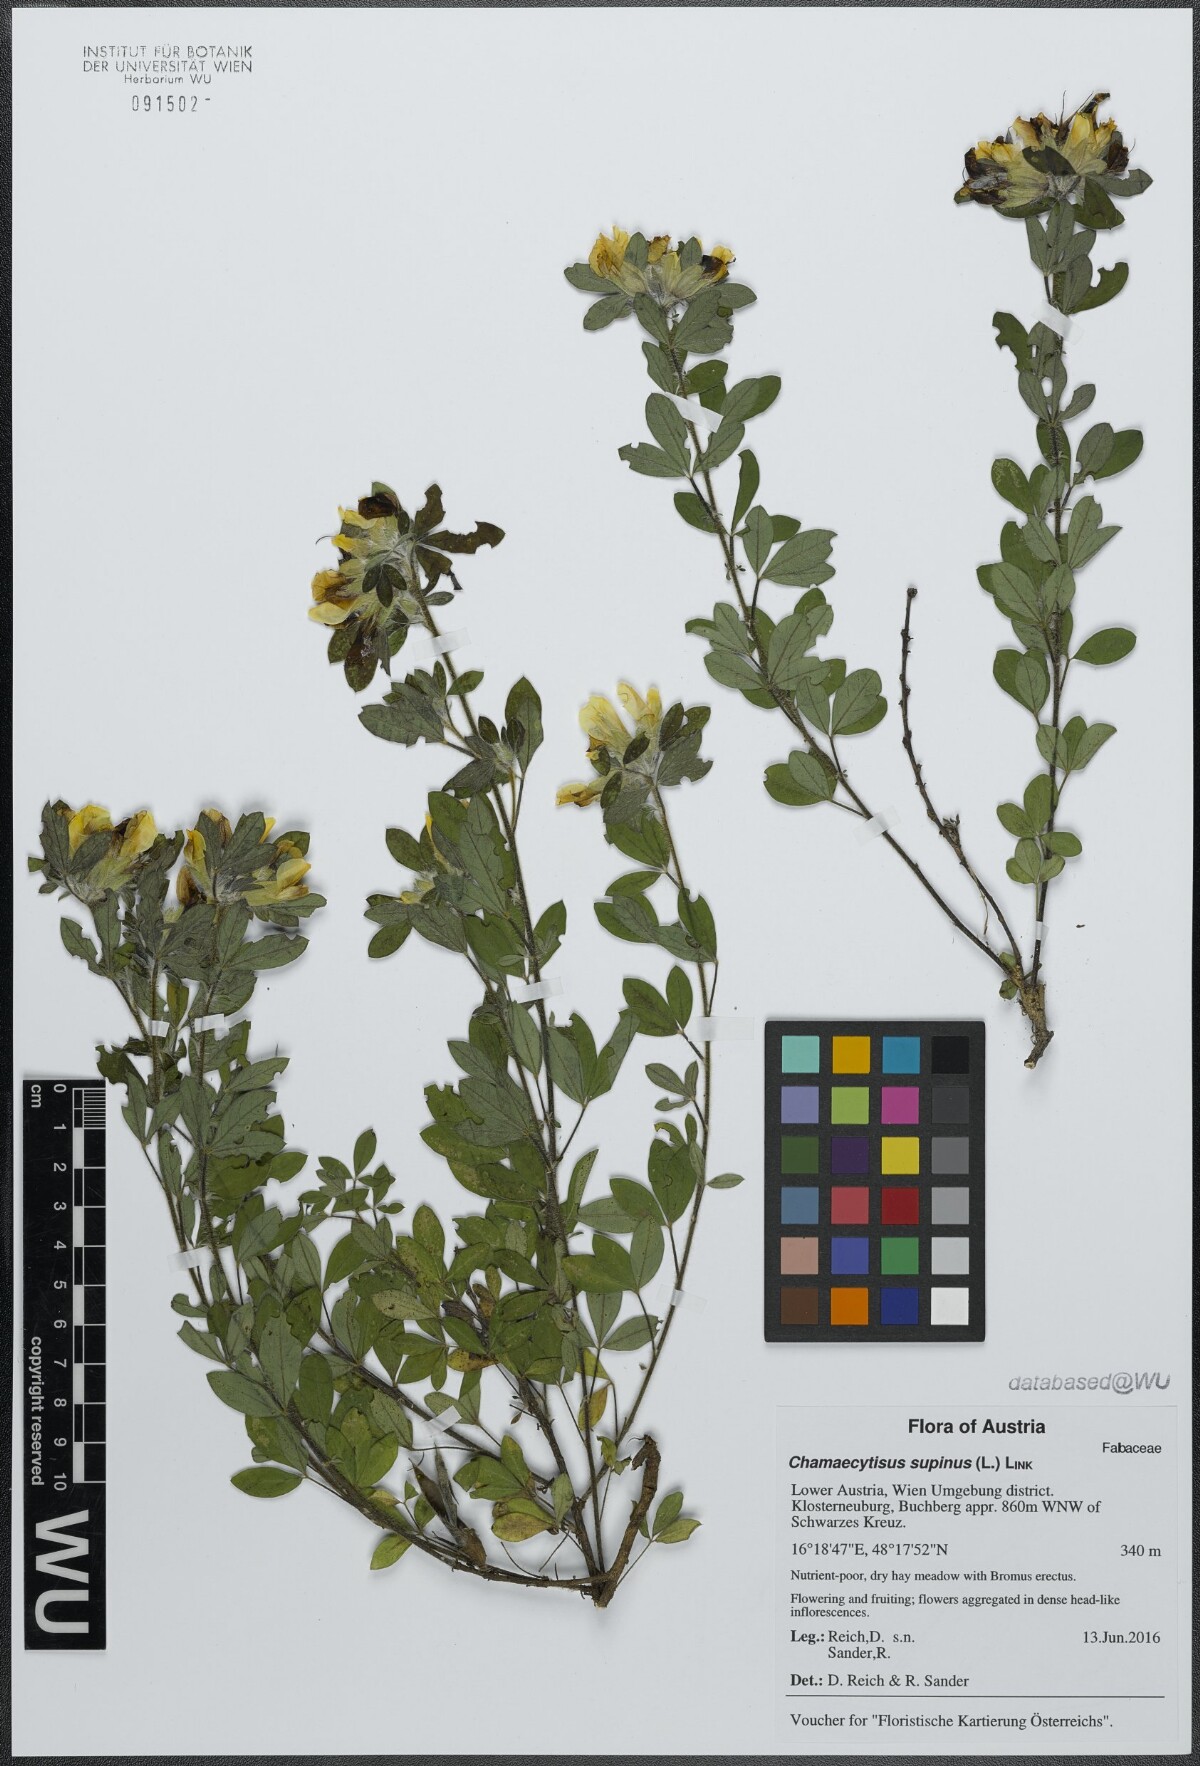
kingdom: Plantae
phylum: Tracheophyta
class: Magnoliopsida
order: Fabales
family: Fabaceae
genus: Chamaecytisus
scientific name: Chamaecytisus supinus
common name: Clustered broom
